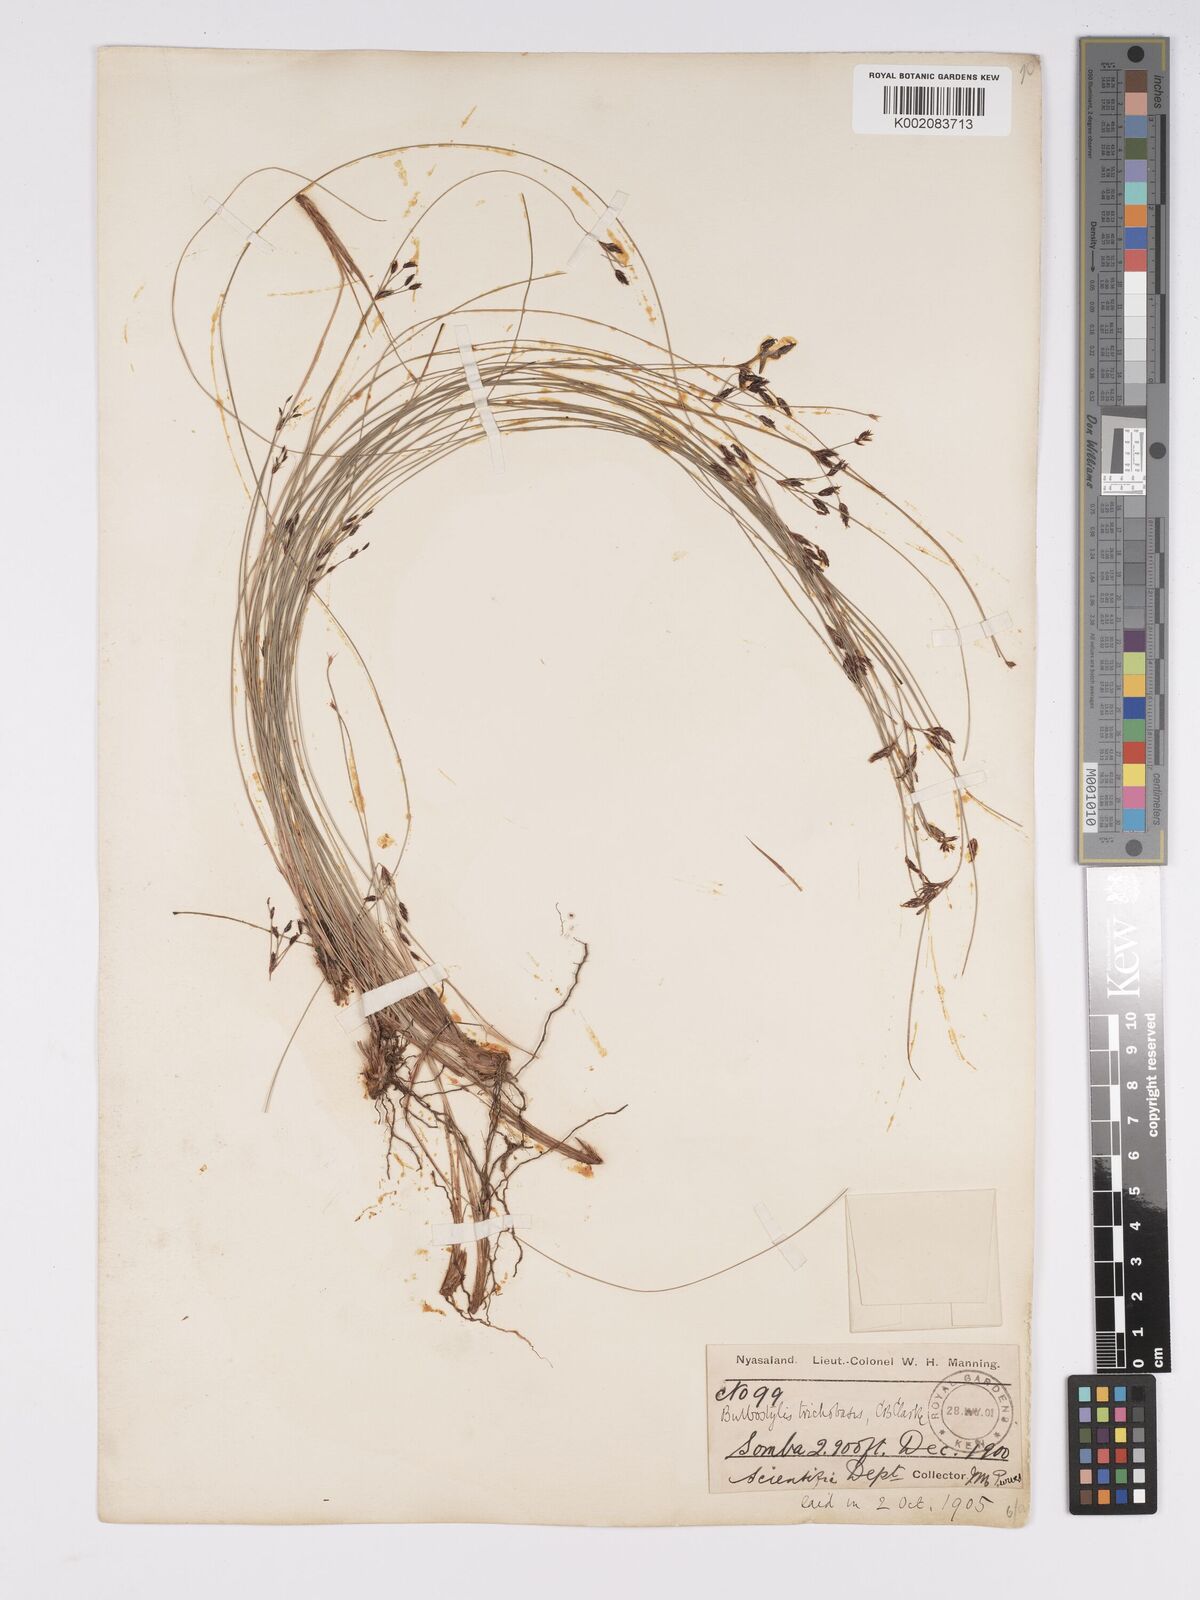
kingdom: Plantae
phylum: Tracheophyta
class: Liliopsida
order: Poales
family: Cyperaceae
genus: Bulbostylis
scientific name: Bulbostylis trichobasis
